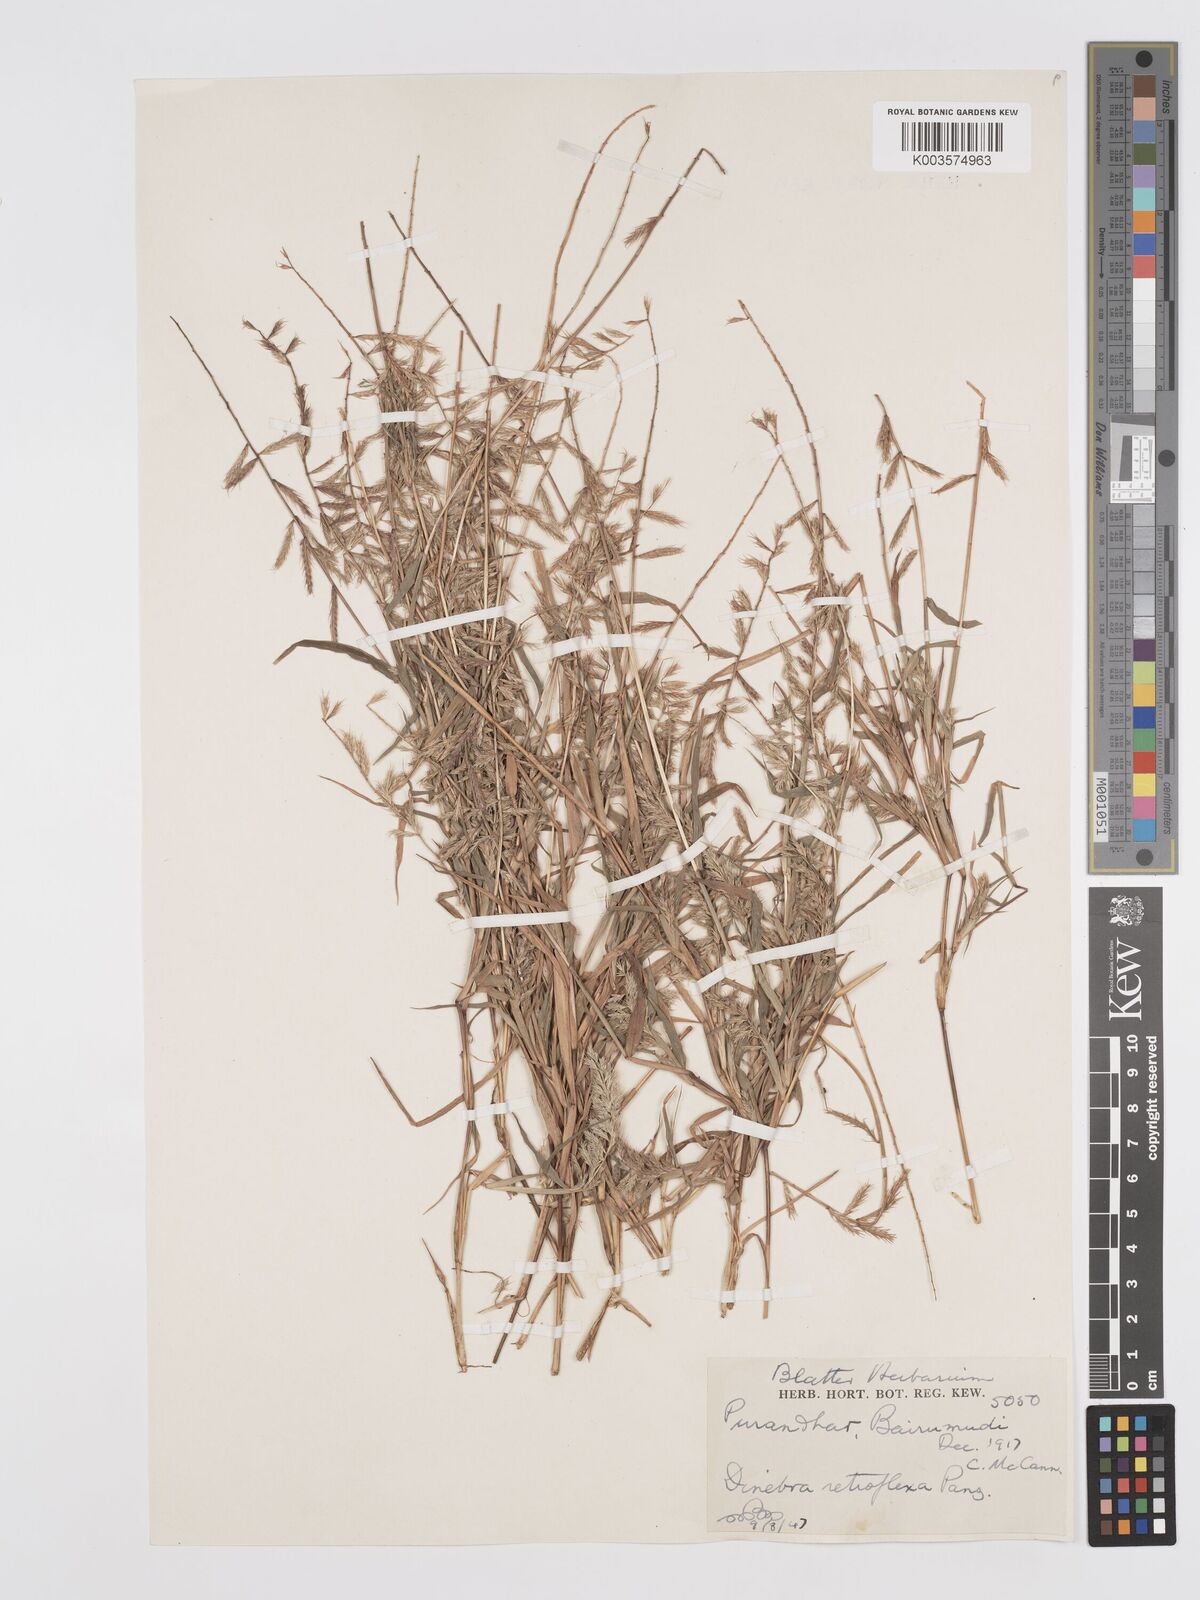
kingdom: Plantae
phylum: Tracheophyta
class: Liliopsida
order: Poales
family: Poaceae
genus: Dinebra
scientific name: Dinebra retroflexa
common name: Viper grass
